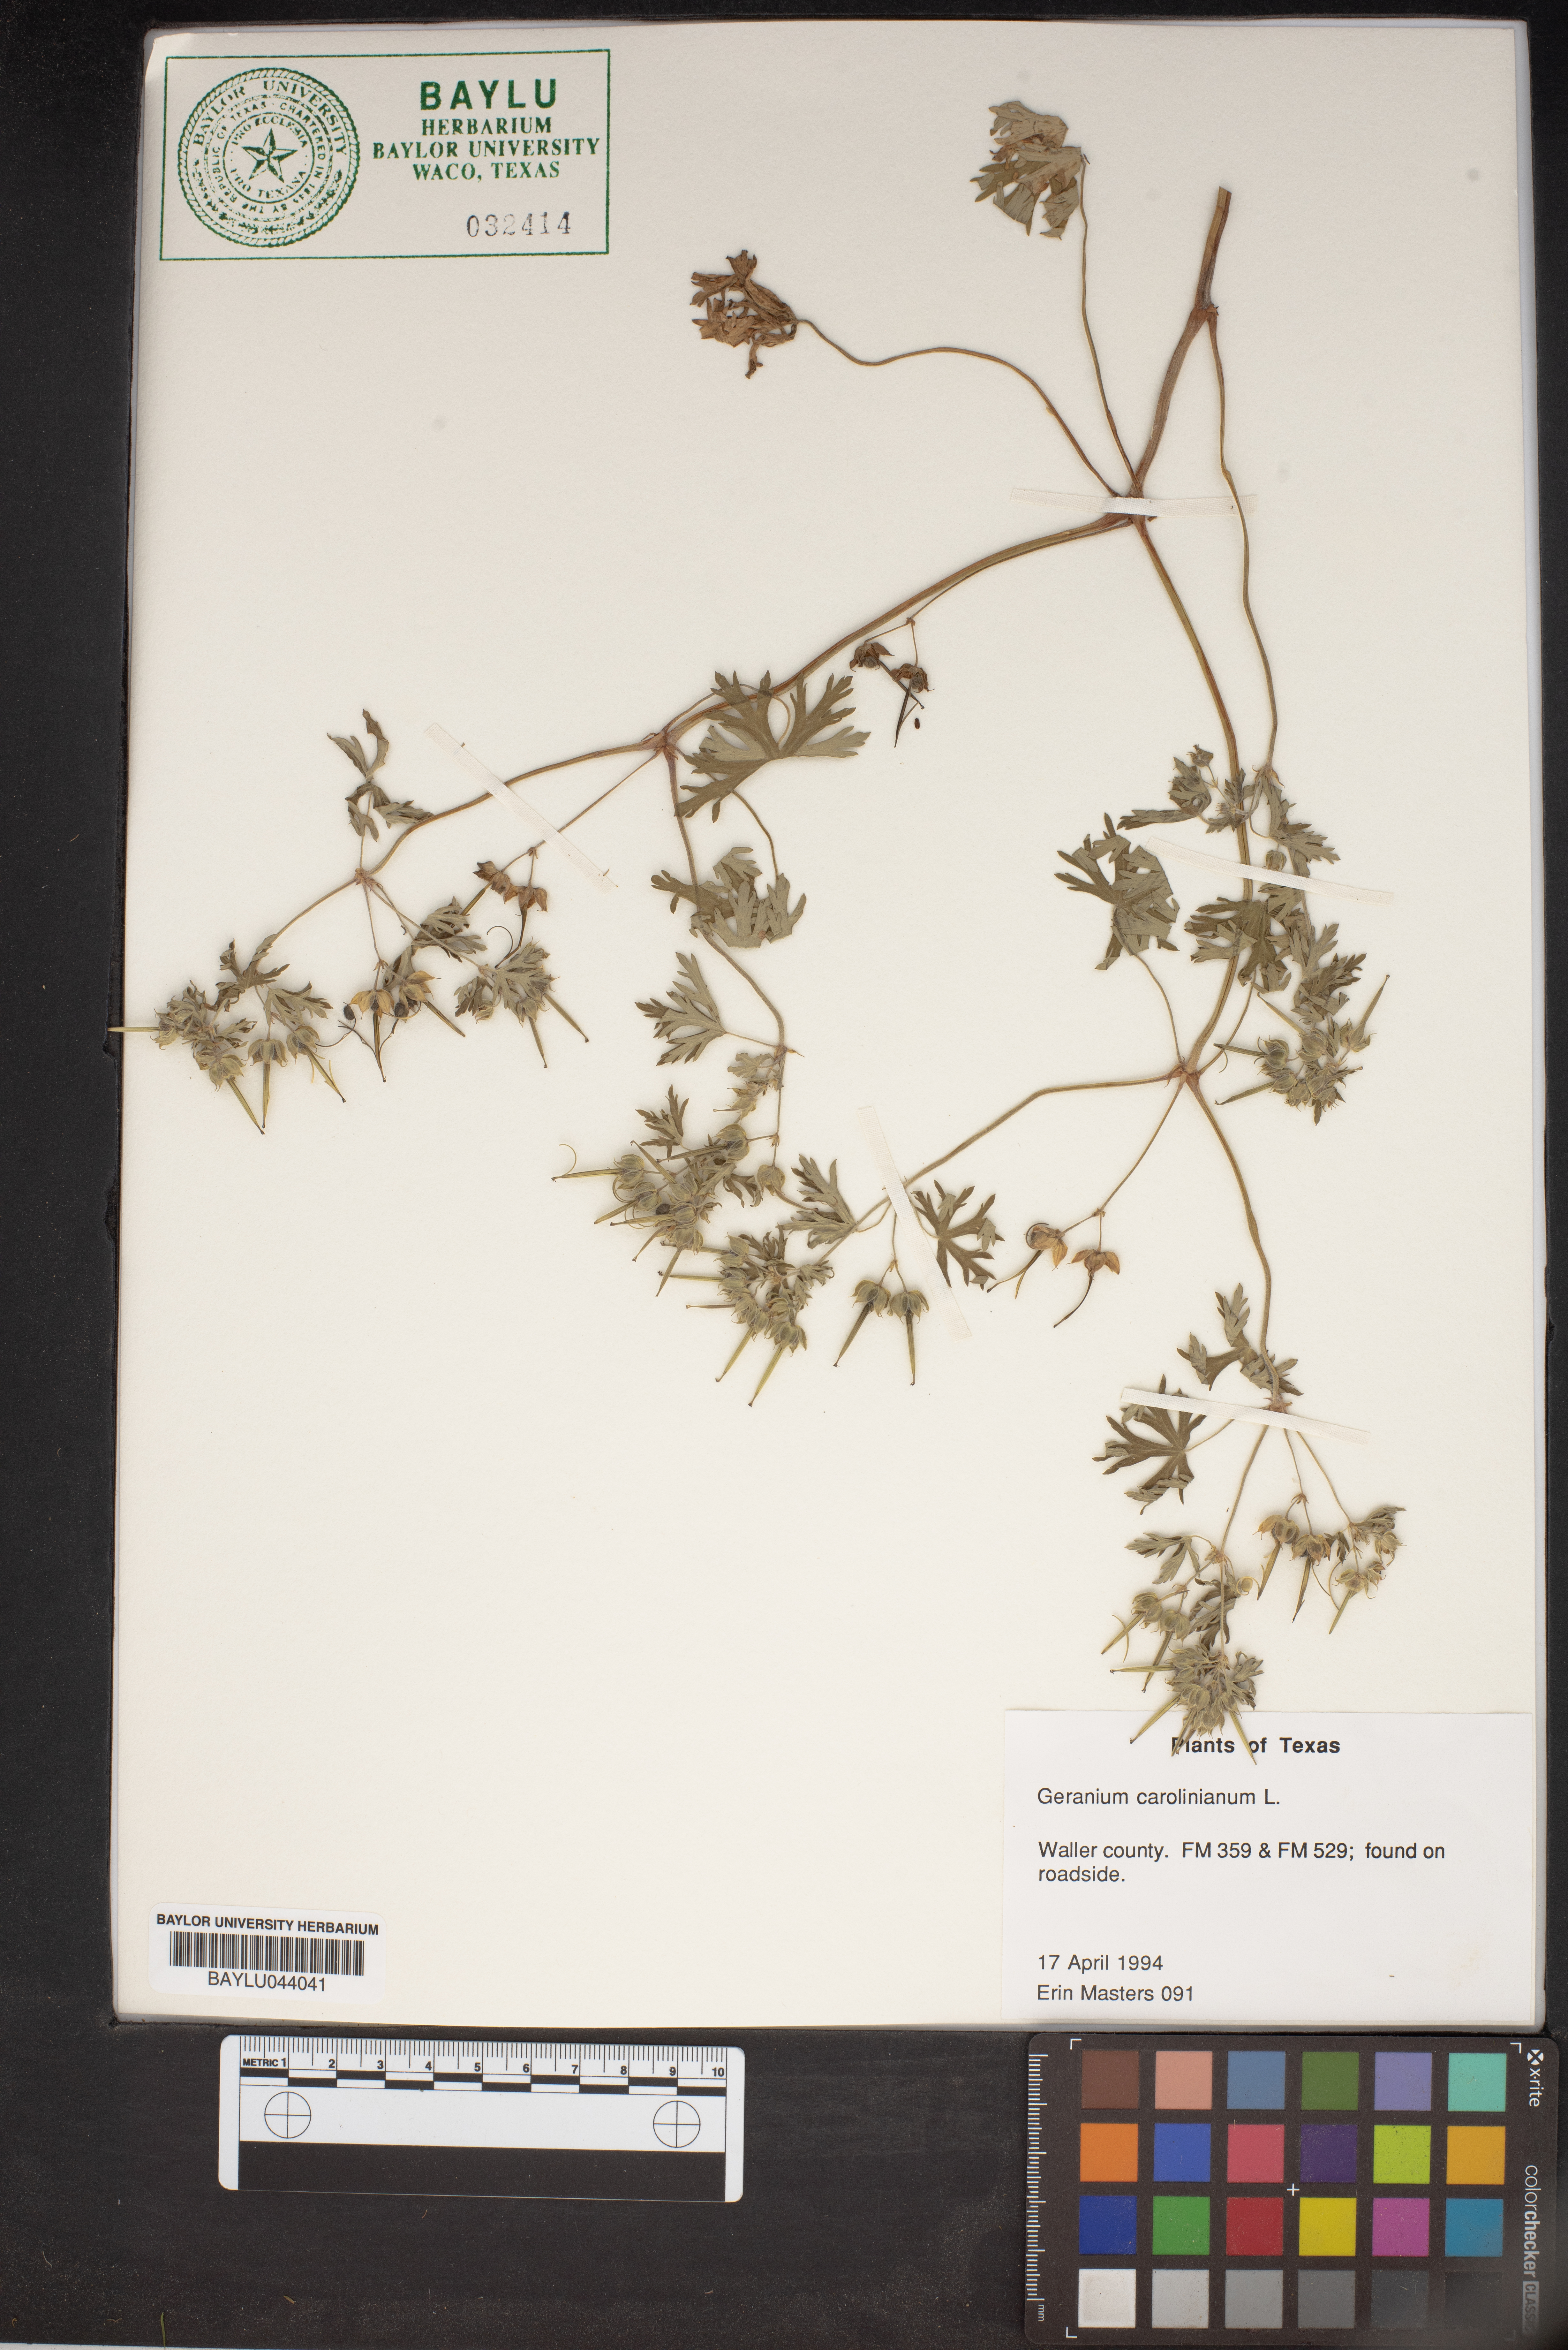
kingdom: Plantae
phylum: Tracheophyta
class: Magnoliopsida
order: Geraniales
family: Geraniaceae
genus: Geranium
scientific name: Geranium carolinianum
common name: Carolina crane's-bill
